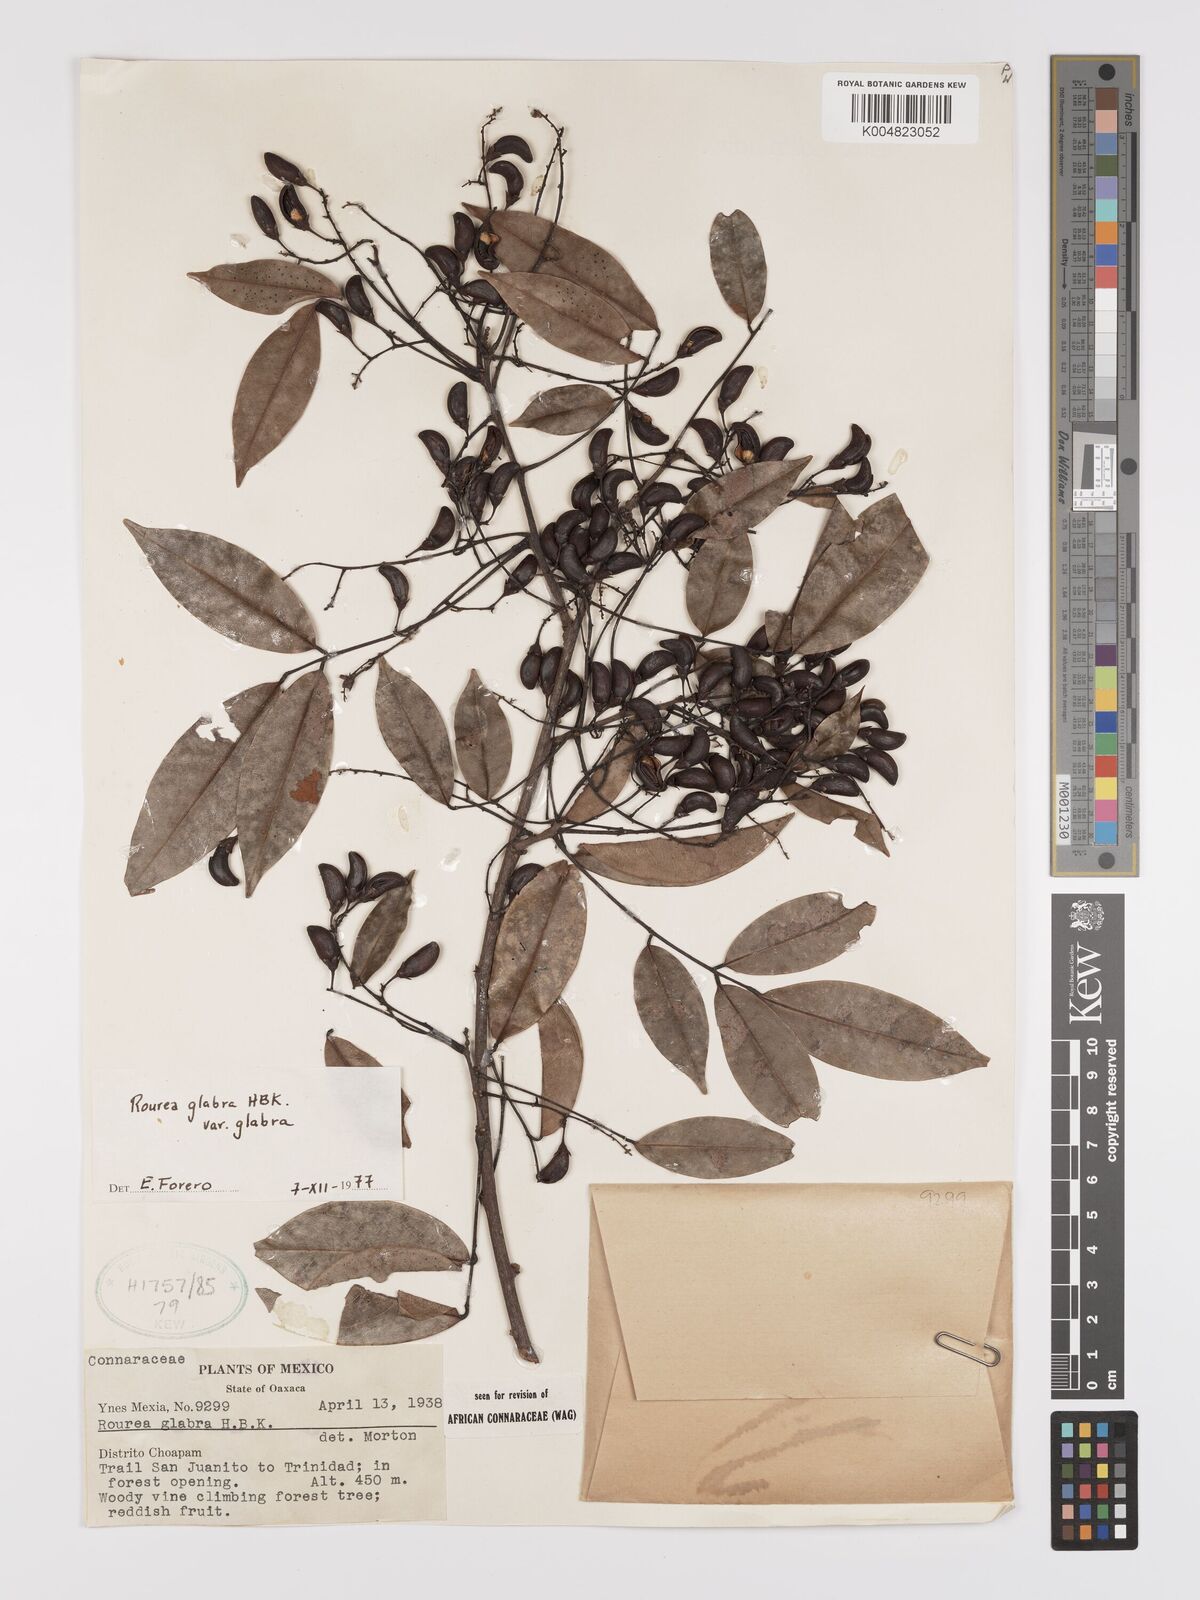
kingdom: Plantae
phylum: Tracheophyta
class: Magnoliopsida
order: Oxalidales
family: Connaraceae
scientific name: Connaraceae
